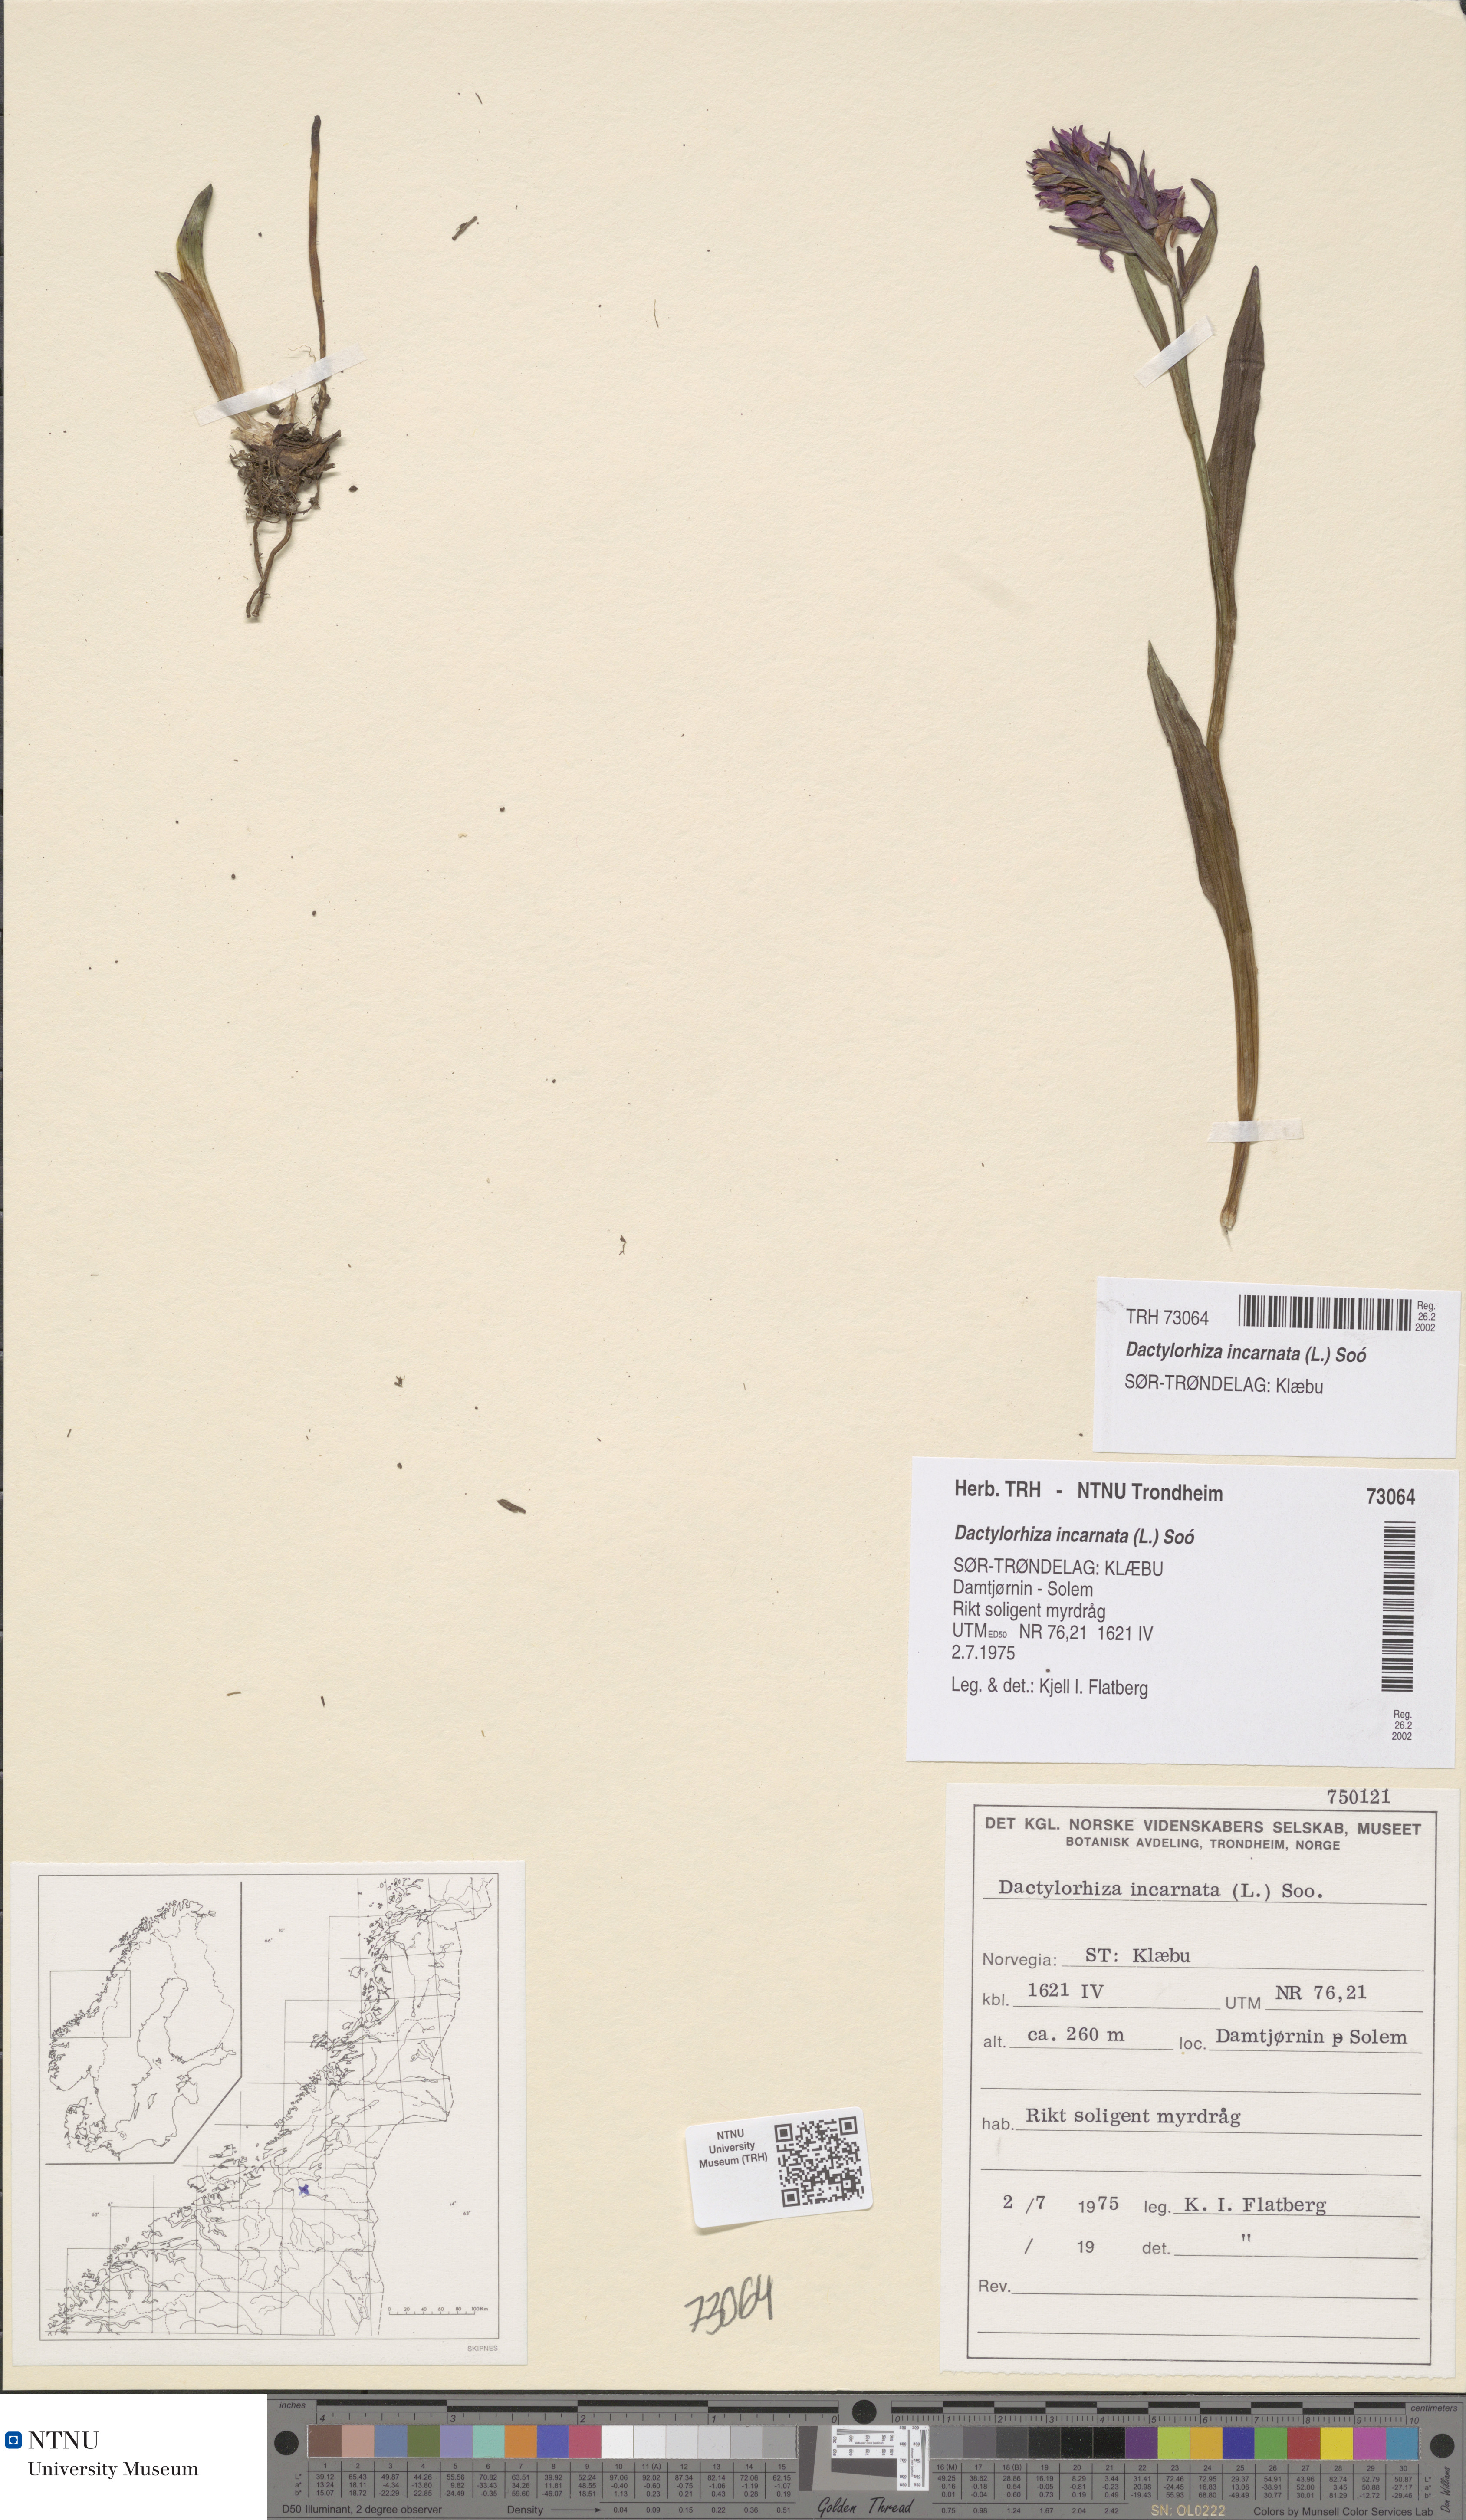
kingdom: Plantae
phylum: Tracheophyta
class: Liliopsida
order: Asparagales
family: Orchidaceae
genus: Dactylorhiza
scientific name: Dactylorhiza incarnata
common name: Early marsh-orchid
